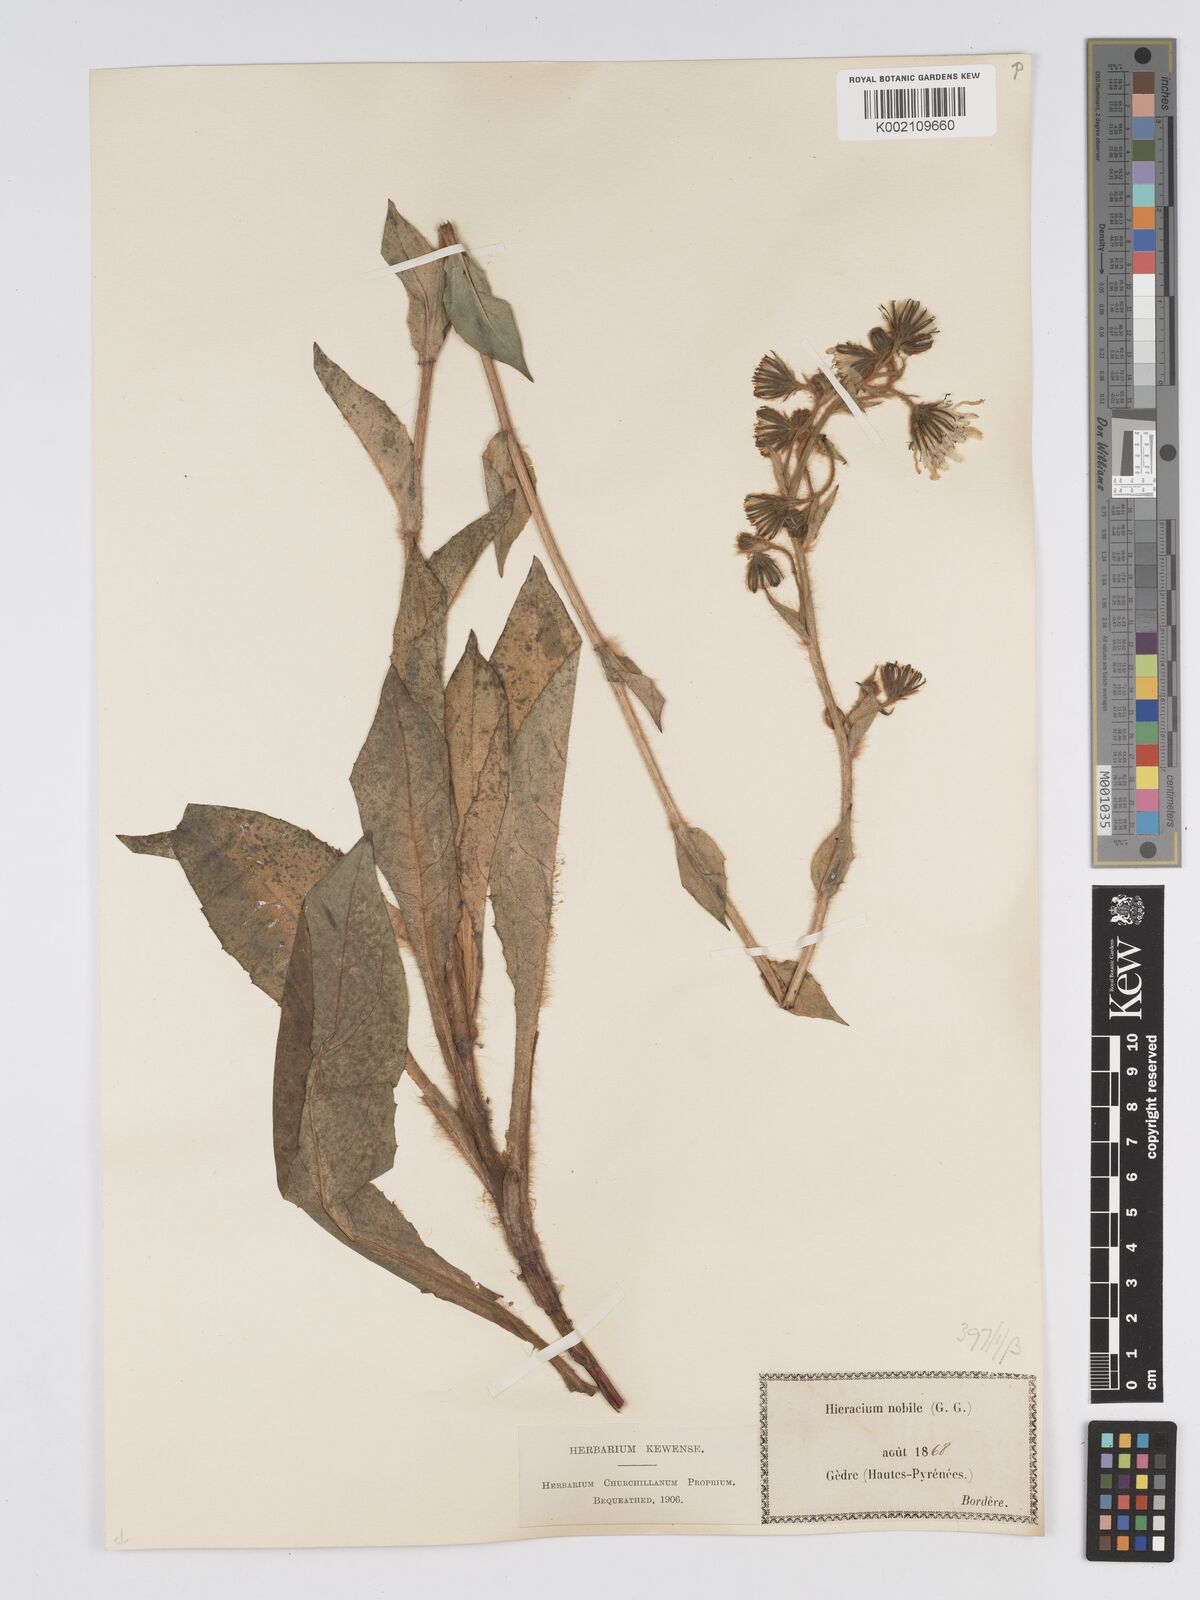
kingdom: Plantae
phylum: Tracheophyta
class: Magnoliopsida
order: Asterales
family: Asteraceae
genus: Hieracium
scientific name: Hieracium nobile
